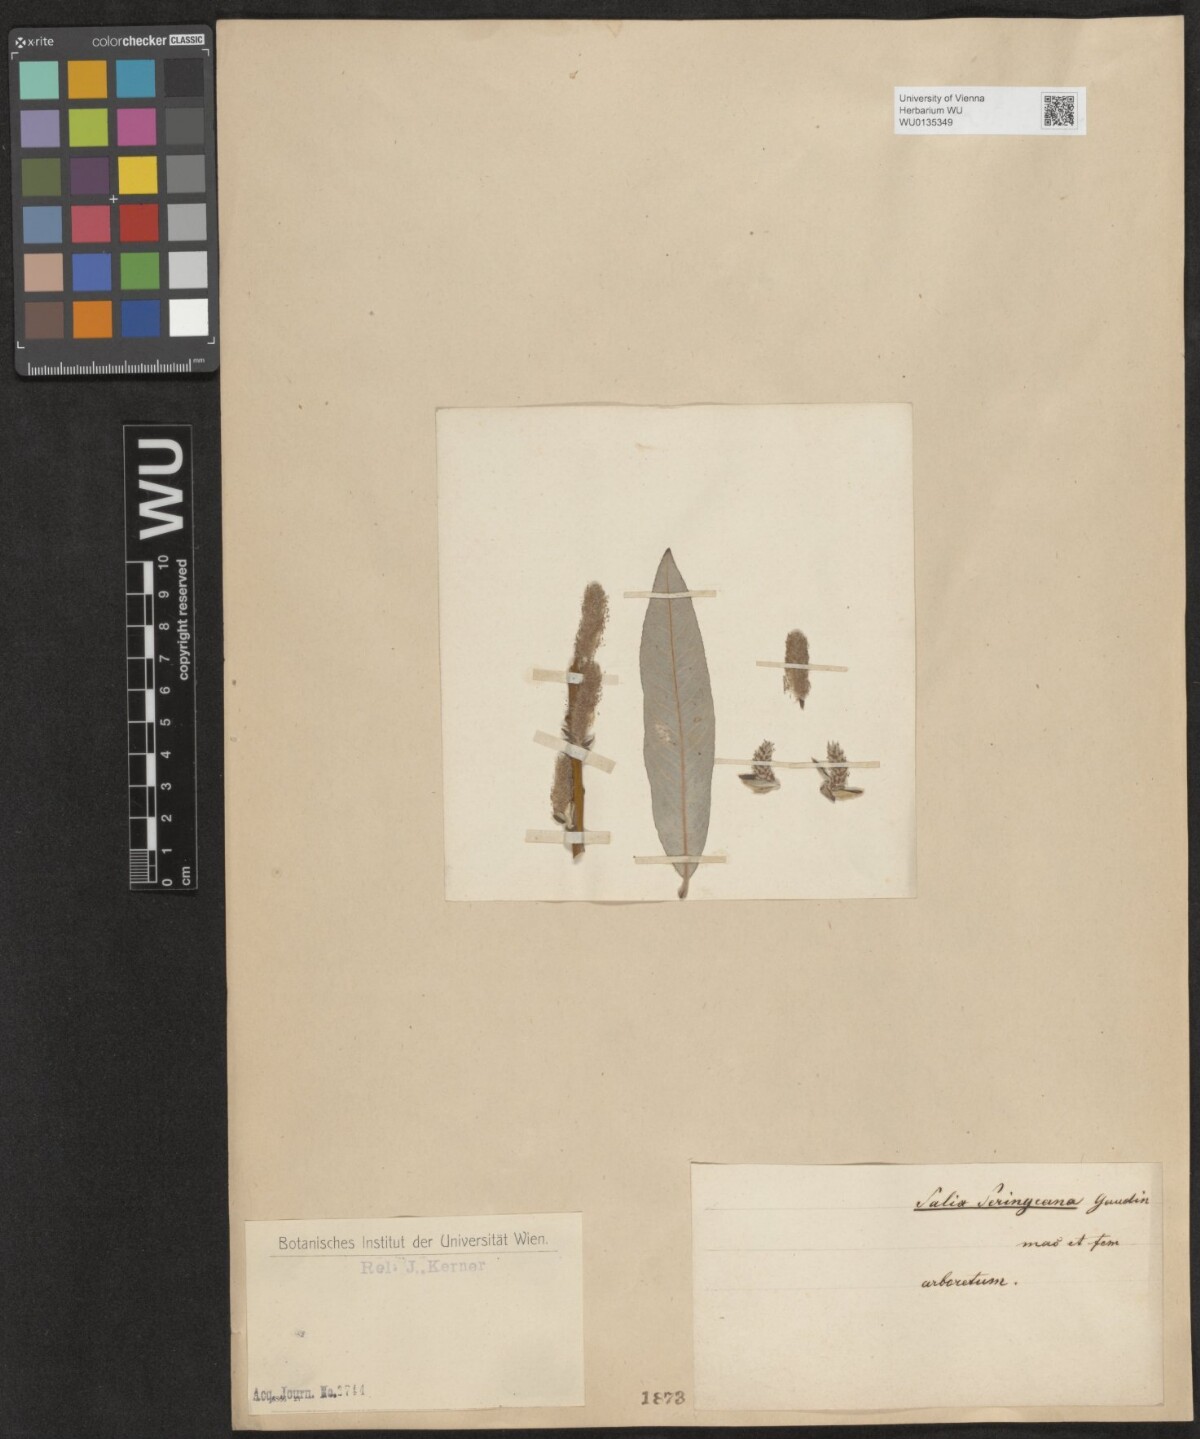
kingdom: Plantae
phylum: Tracheophyta
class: Magnoliopsida
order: Malpighiales
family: Salicaceae
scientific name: Salicaceae
